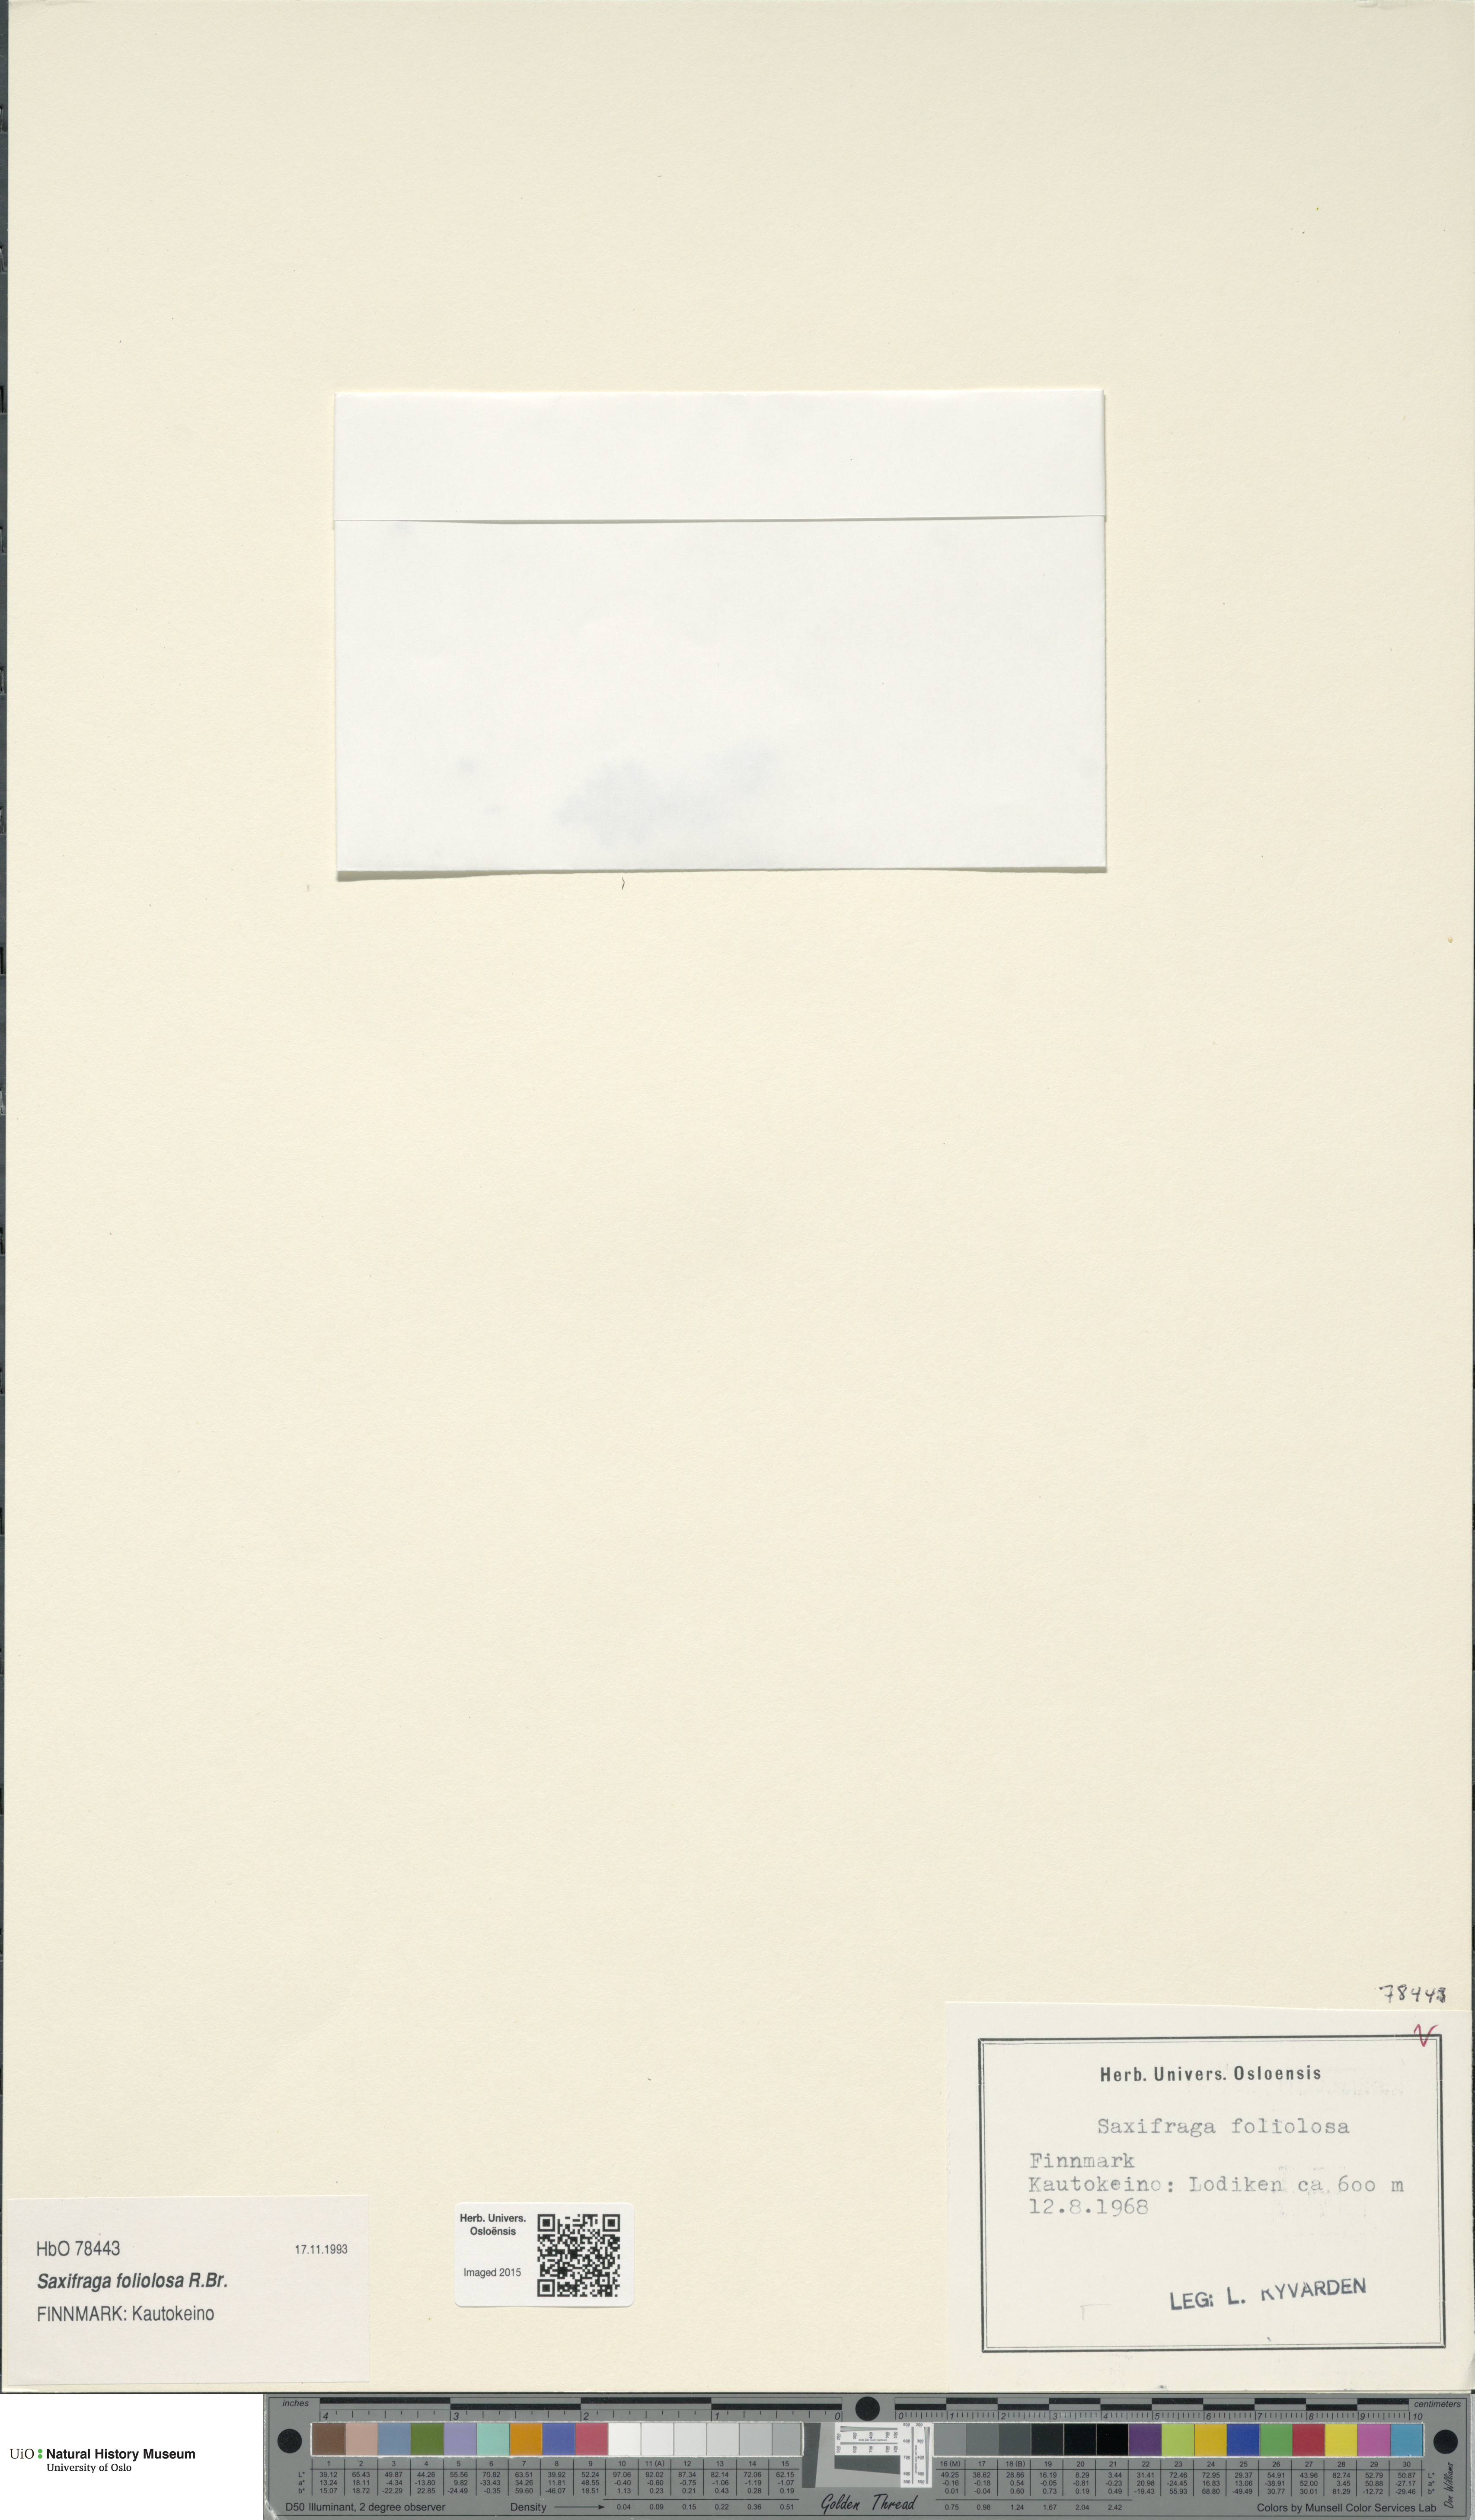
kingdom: Plantae
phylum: Tracheophyta
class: Magnoliopsida
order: Saxifragales
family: Saxifragaceae
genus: Micranthes
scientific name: Micranthes foliolosa
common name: Leafystem saxifrage
